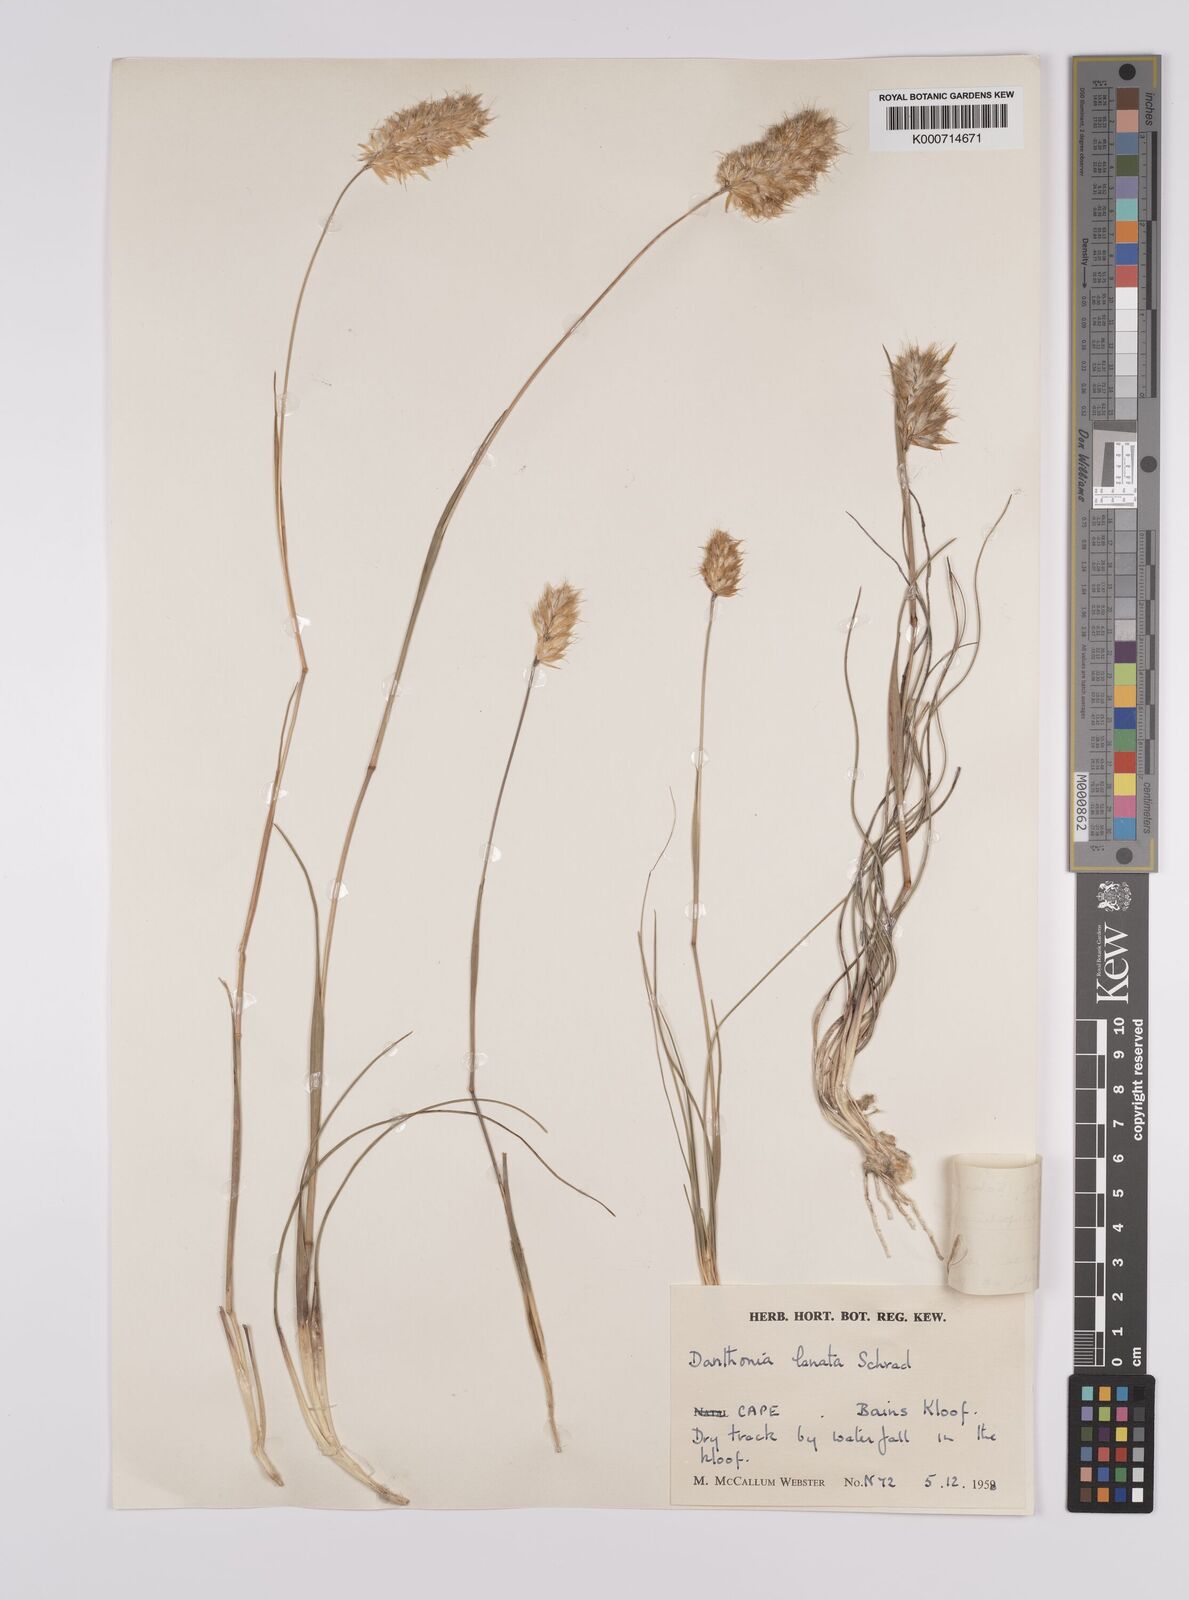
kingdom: Plantae
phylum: Tracheophyta
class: Liliopsida
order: Poales
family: Poaceae
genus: Rytidosperma
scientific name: Rytidosperma
